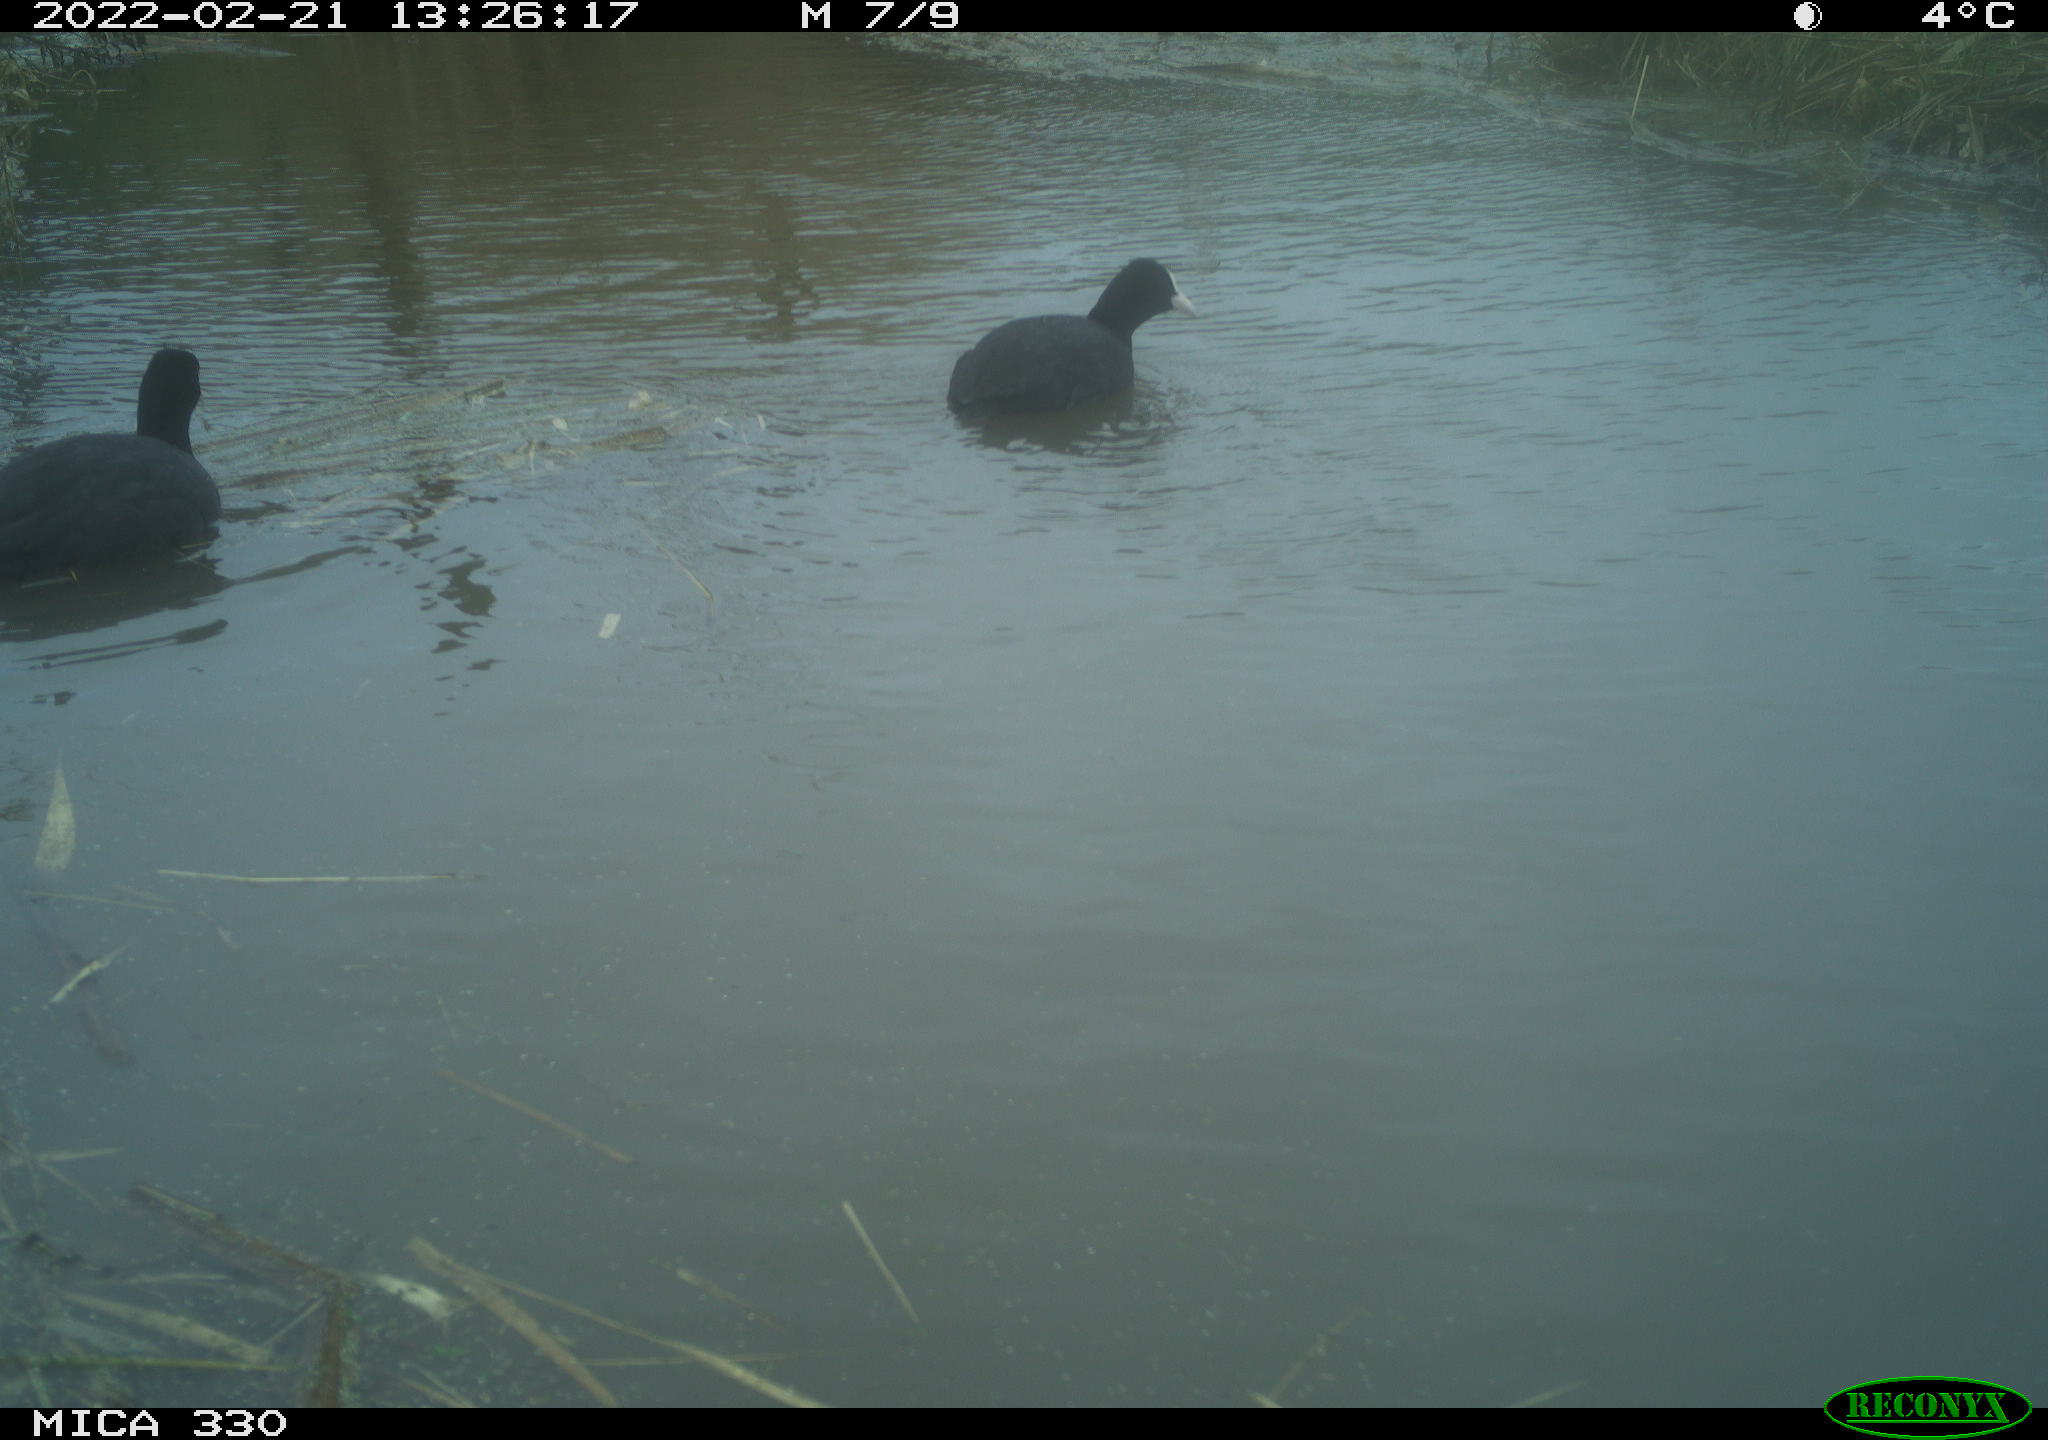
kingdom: Animalia
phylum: Chordata
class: Aves
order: Gruiformes
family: Rallidae
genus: Fulica
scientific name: Fulica atra
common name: Eurasian coot
